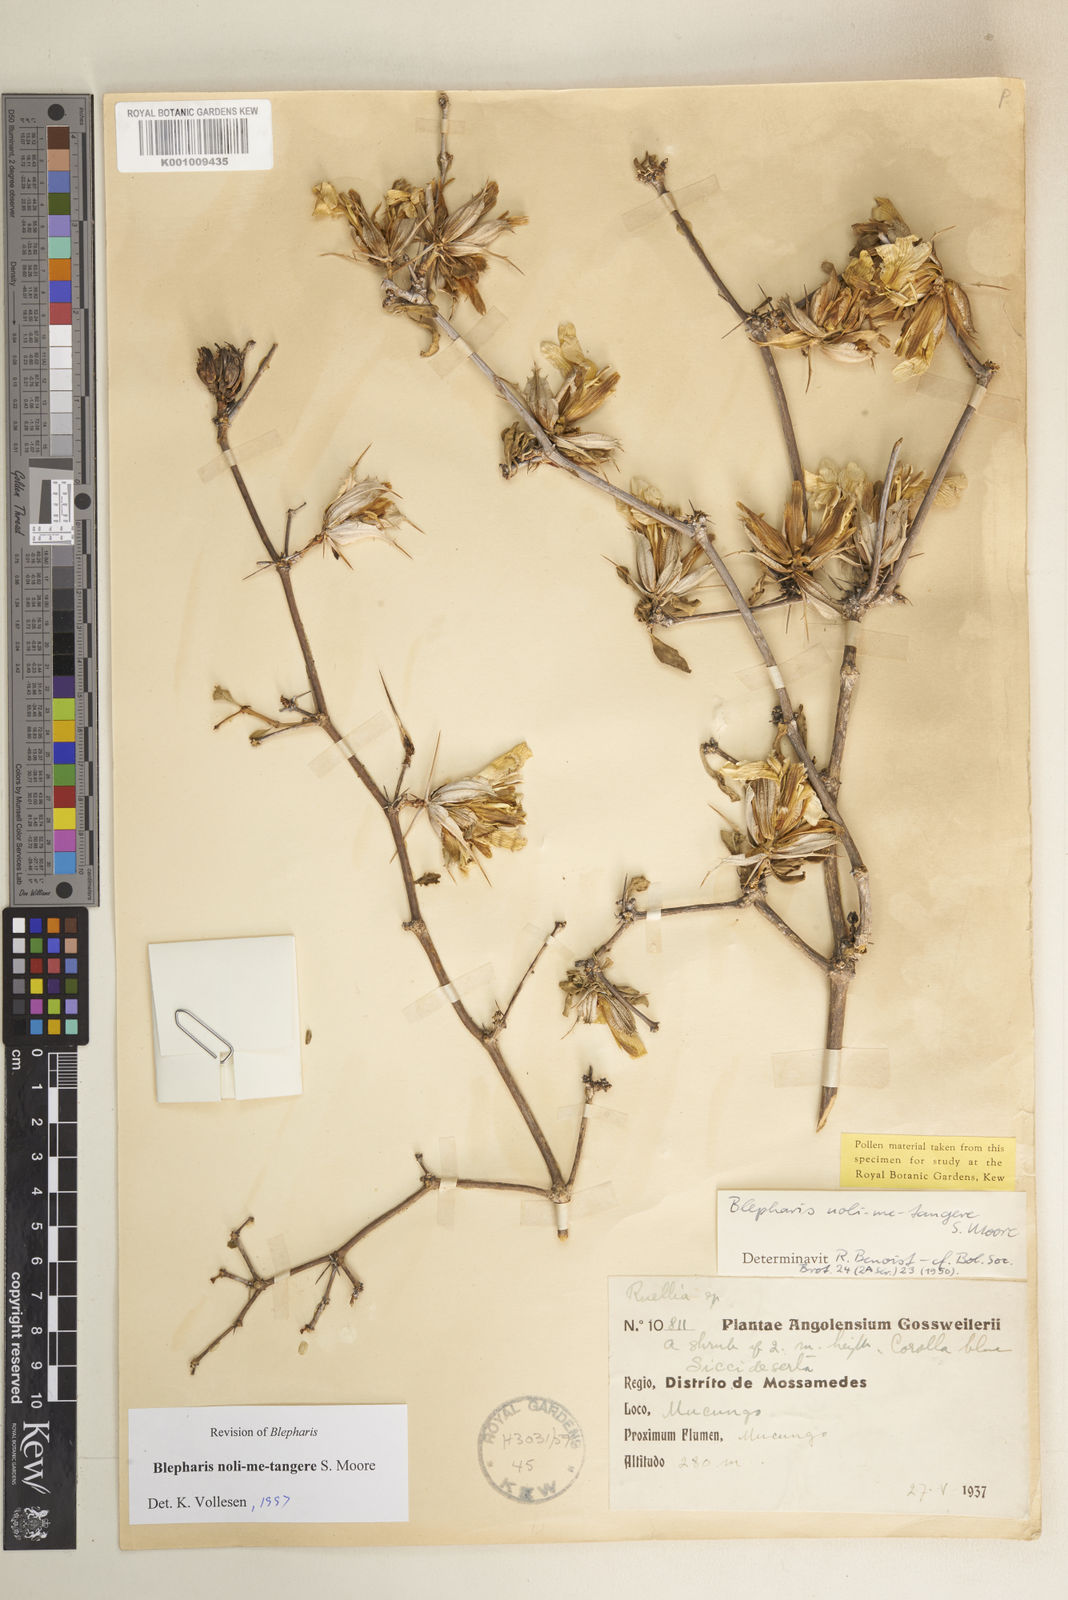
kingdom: Plantae
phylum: Tracheophyta
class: Magnoliopsida
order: Lamiales
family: Acanthaceae
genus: Blepharis
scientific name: Blepharis noli-me-tangere
